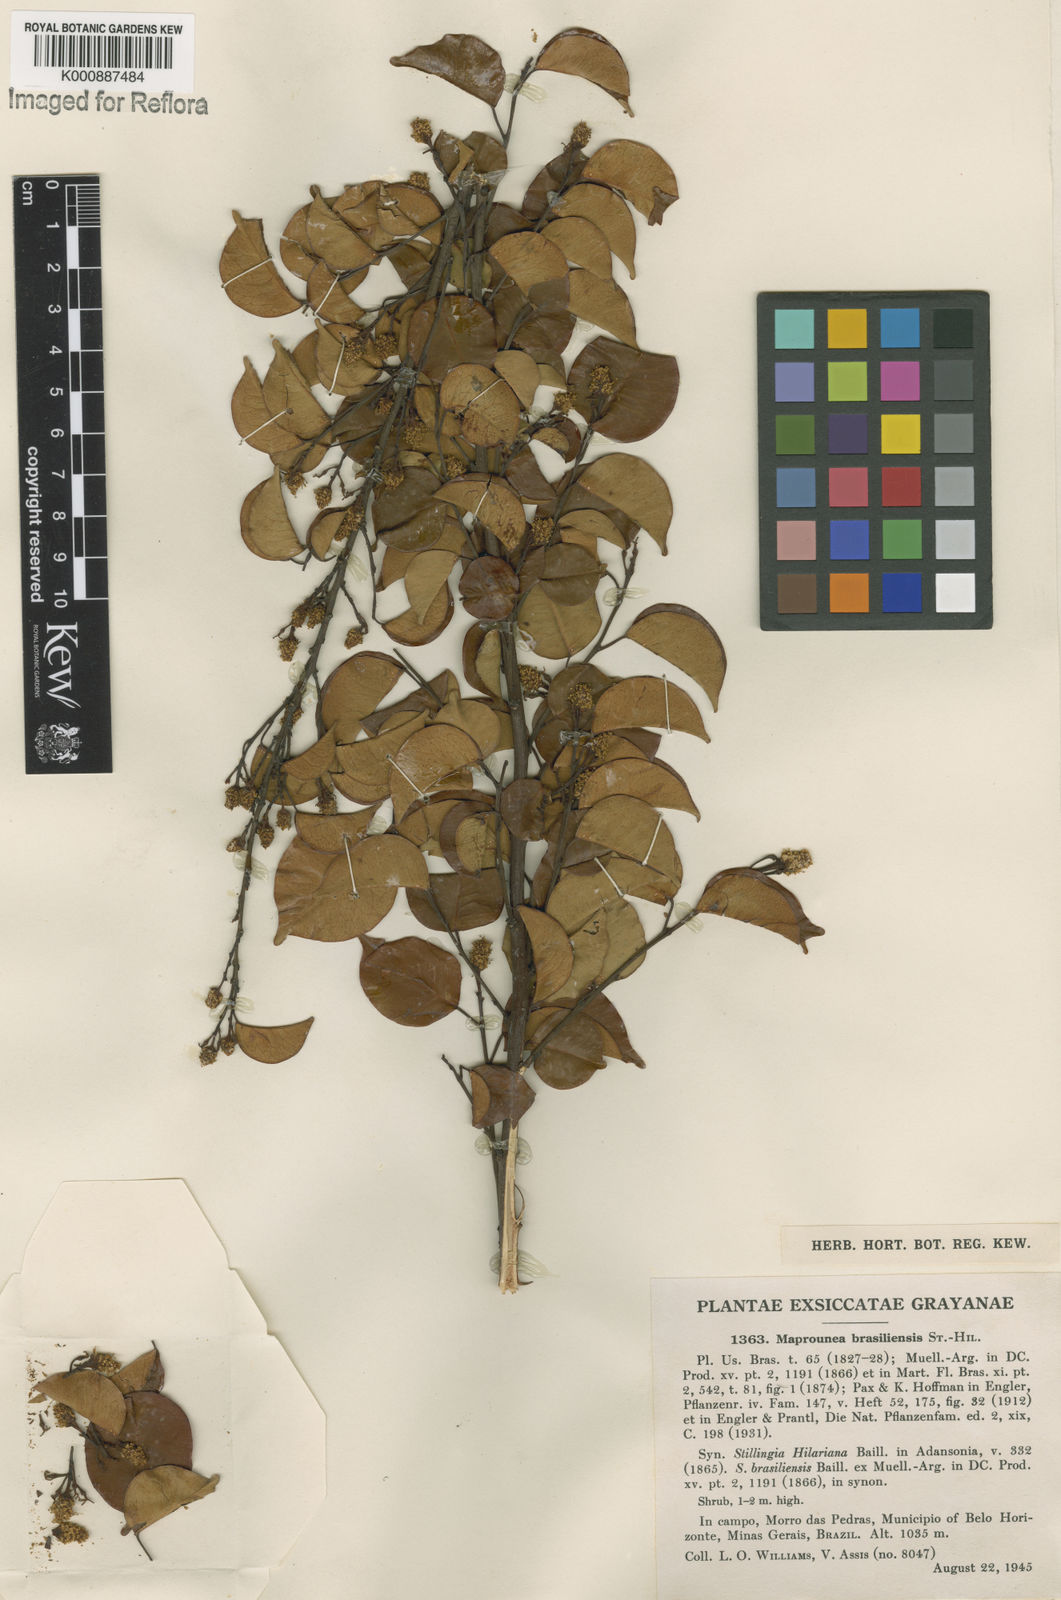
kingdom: Plantae
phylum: Tracheophyta
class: Magnoliopsida
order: Malpighiales
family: Euphorbiaceae
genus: Maprounea
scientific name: Maprounea brasiliensis
